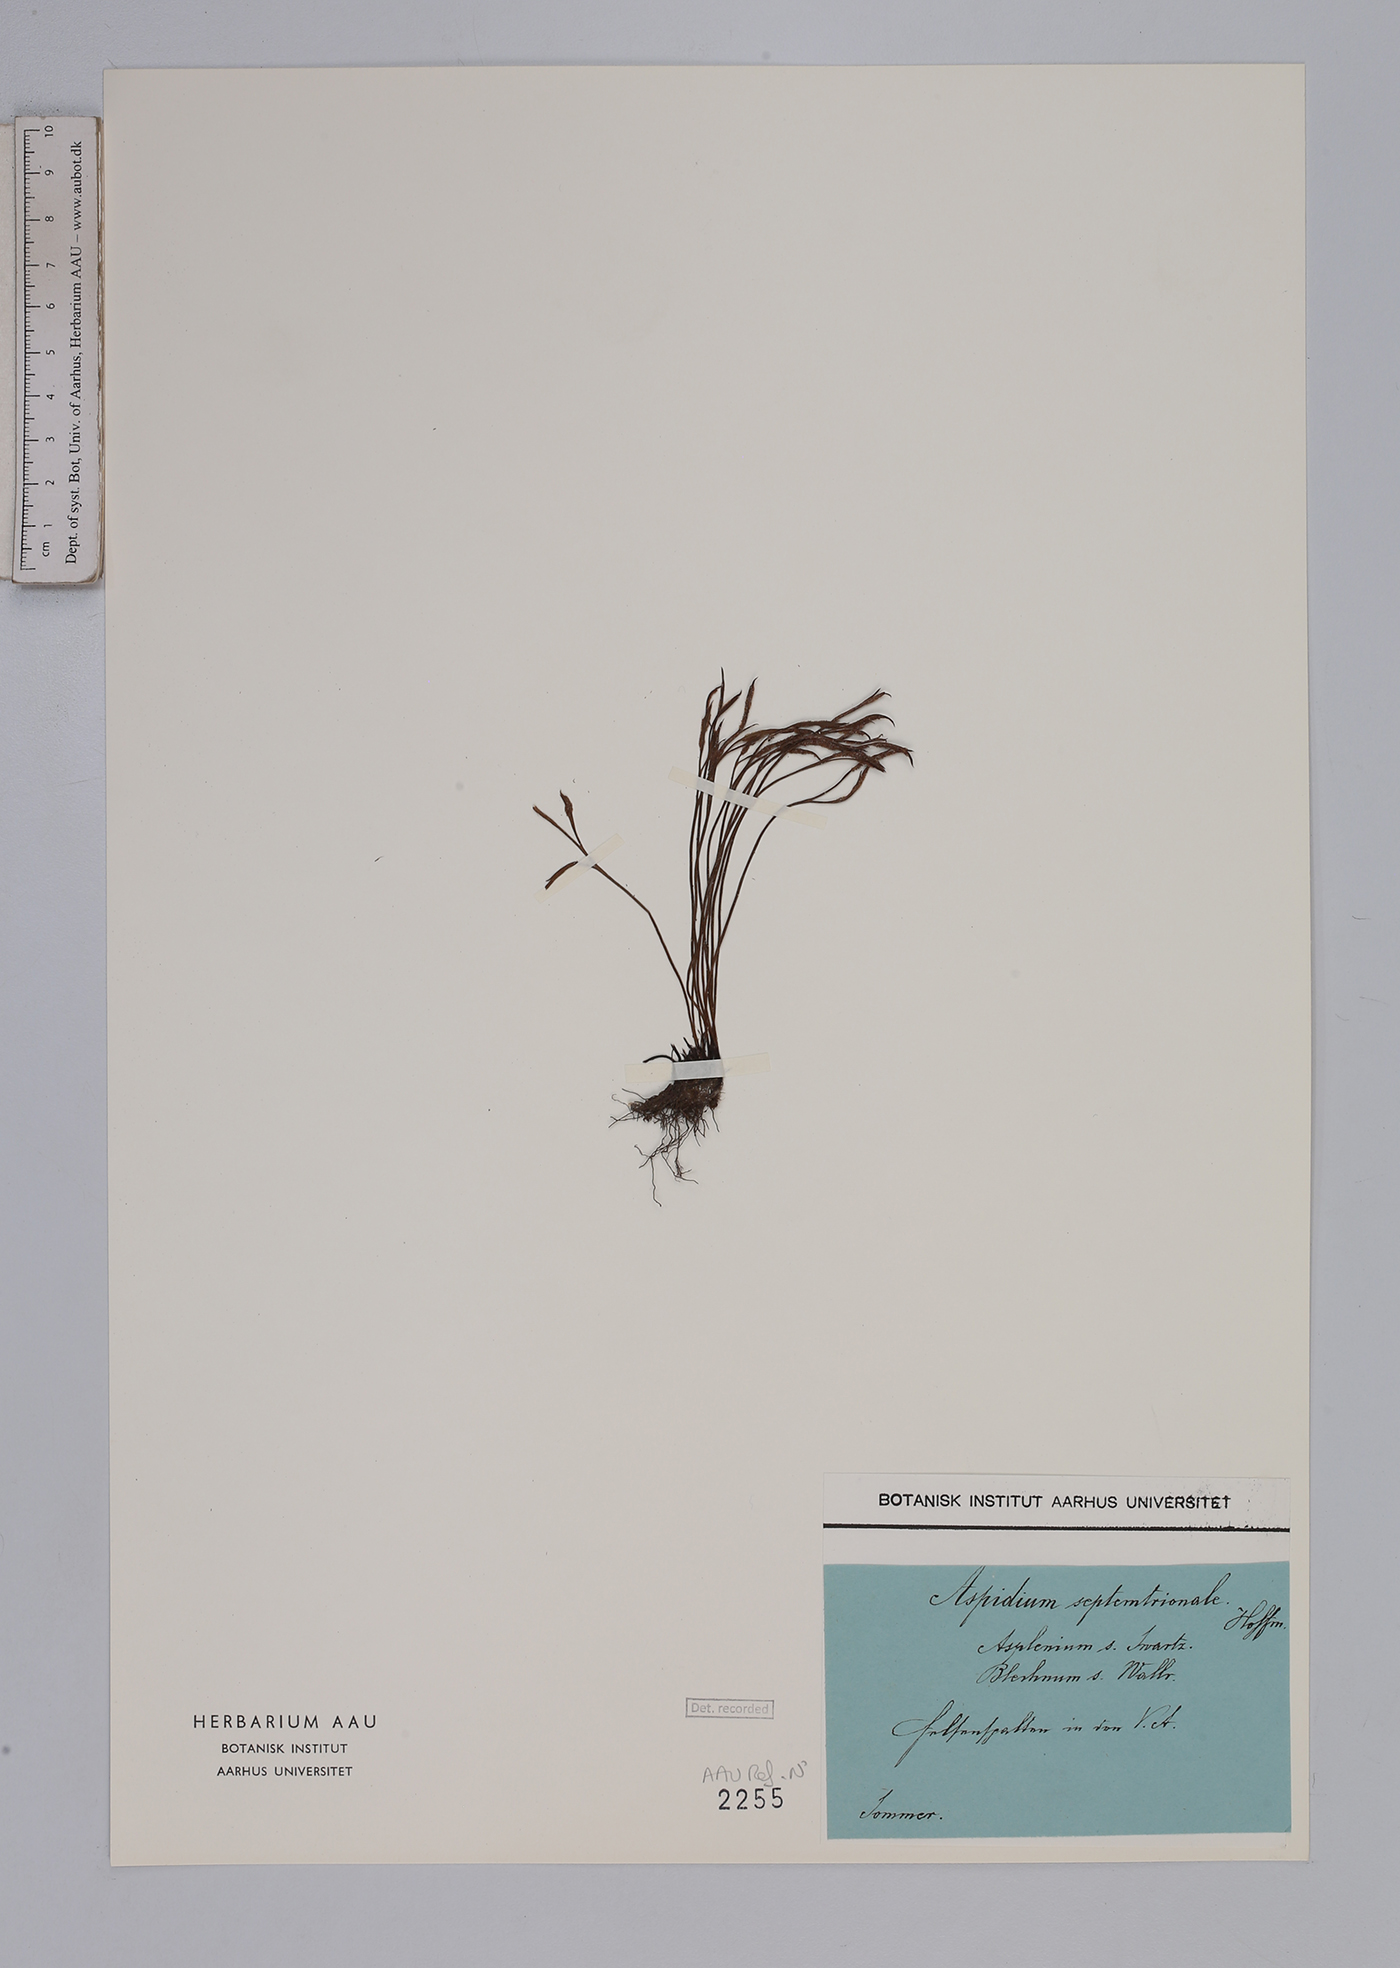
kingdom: Plantae
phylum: Tracheophyta
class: Polypodiopsida
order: Polypodiales
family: Aspleniaceae
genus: Asplenium
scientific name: Asplenium septentrionale
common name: Forked spleenwort
